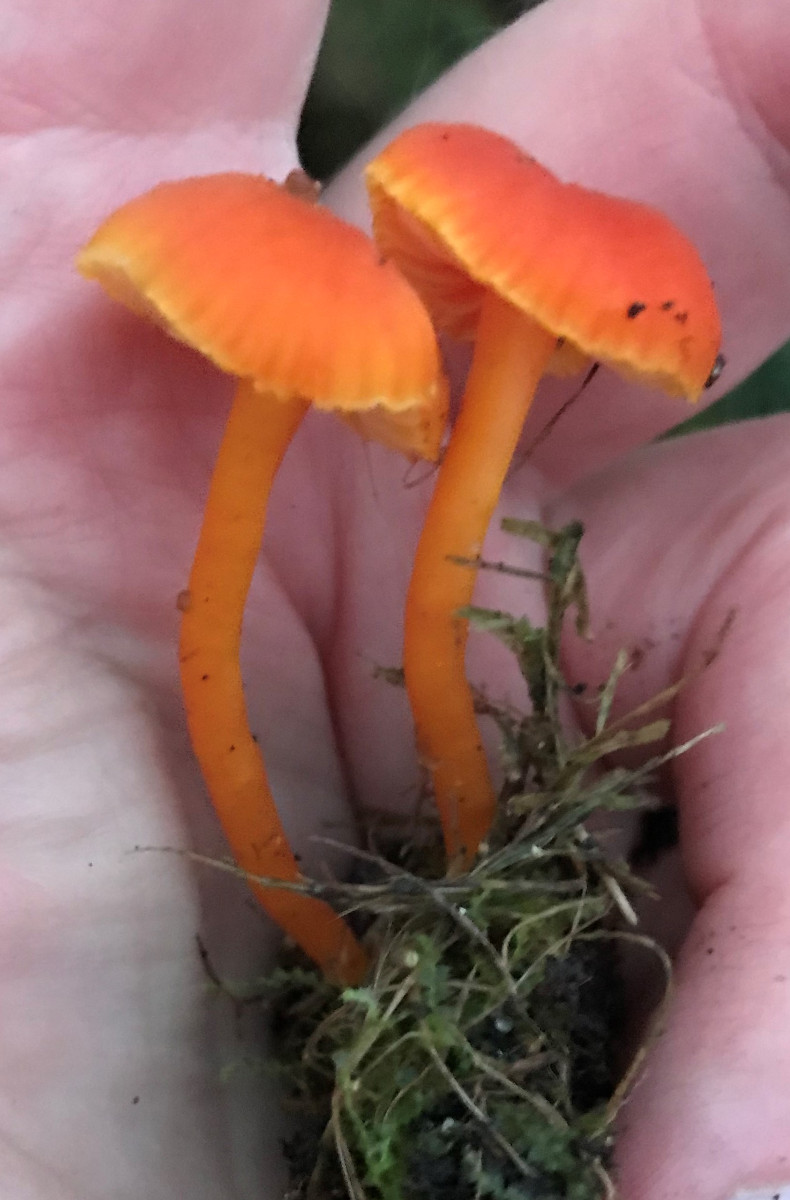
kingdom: Fungi
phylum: Basidiomycota
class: Agaricomycetes
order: Agaricales
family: Hygrophoraceae
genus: Hygrocybe
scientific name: Hygrocybe miniata
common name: mønje-vokshat
